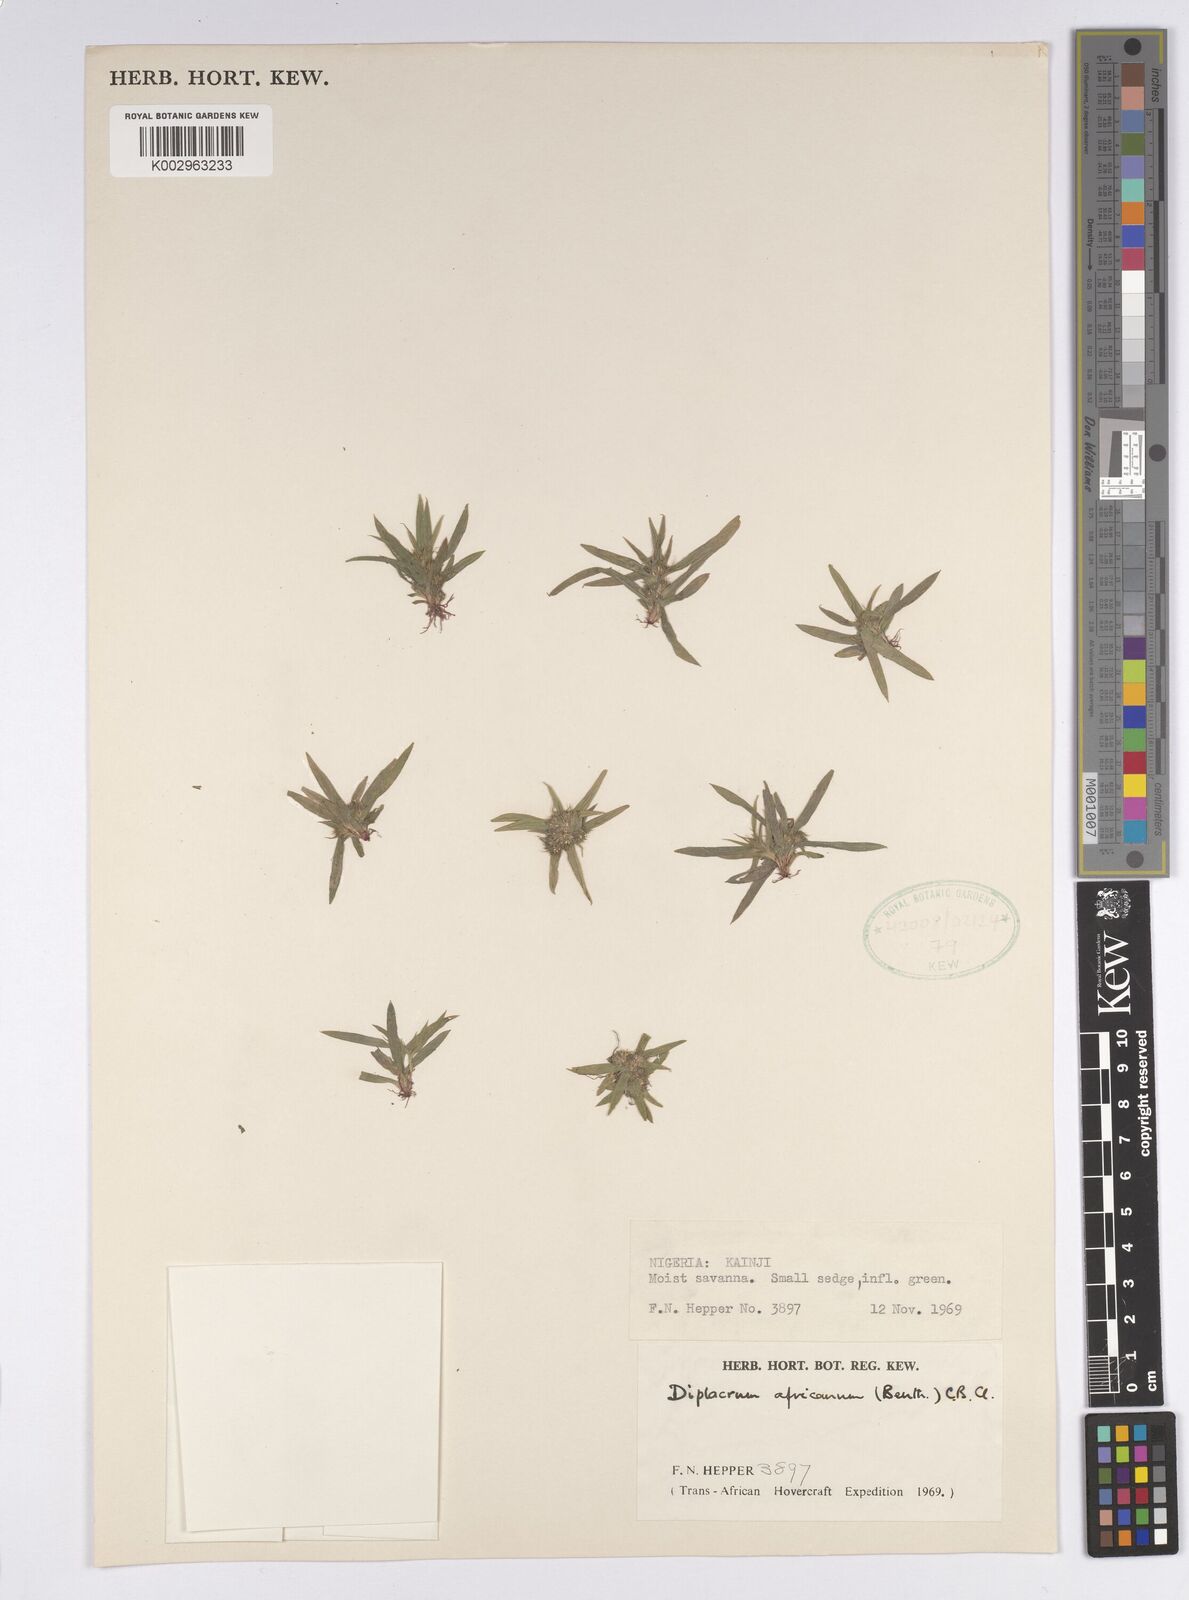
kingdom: Plantae
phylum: Tracheophyta
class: Liliopsida
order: Poales
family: Cyperaceae
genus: Diplacrum
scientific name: Diplacrum africanum
